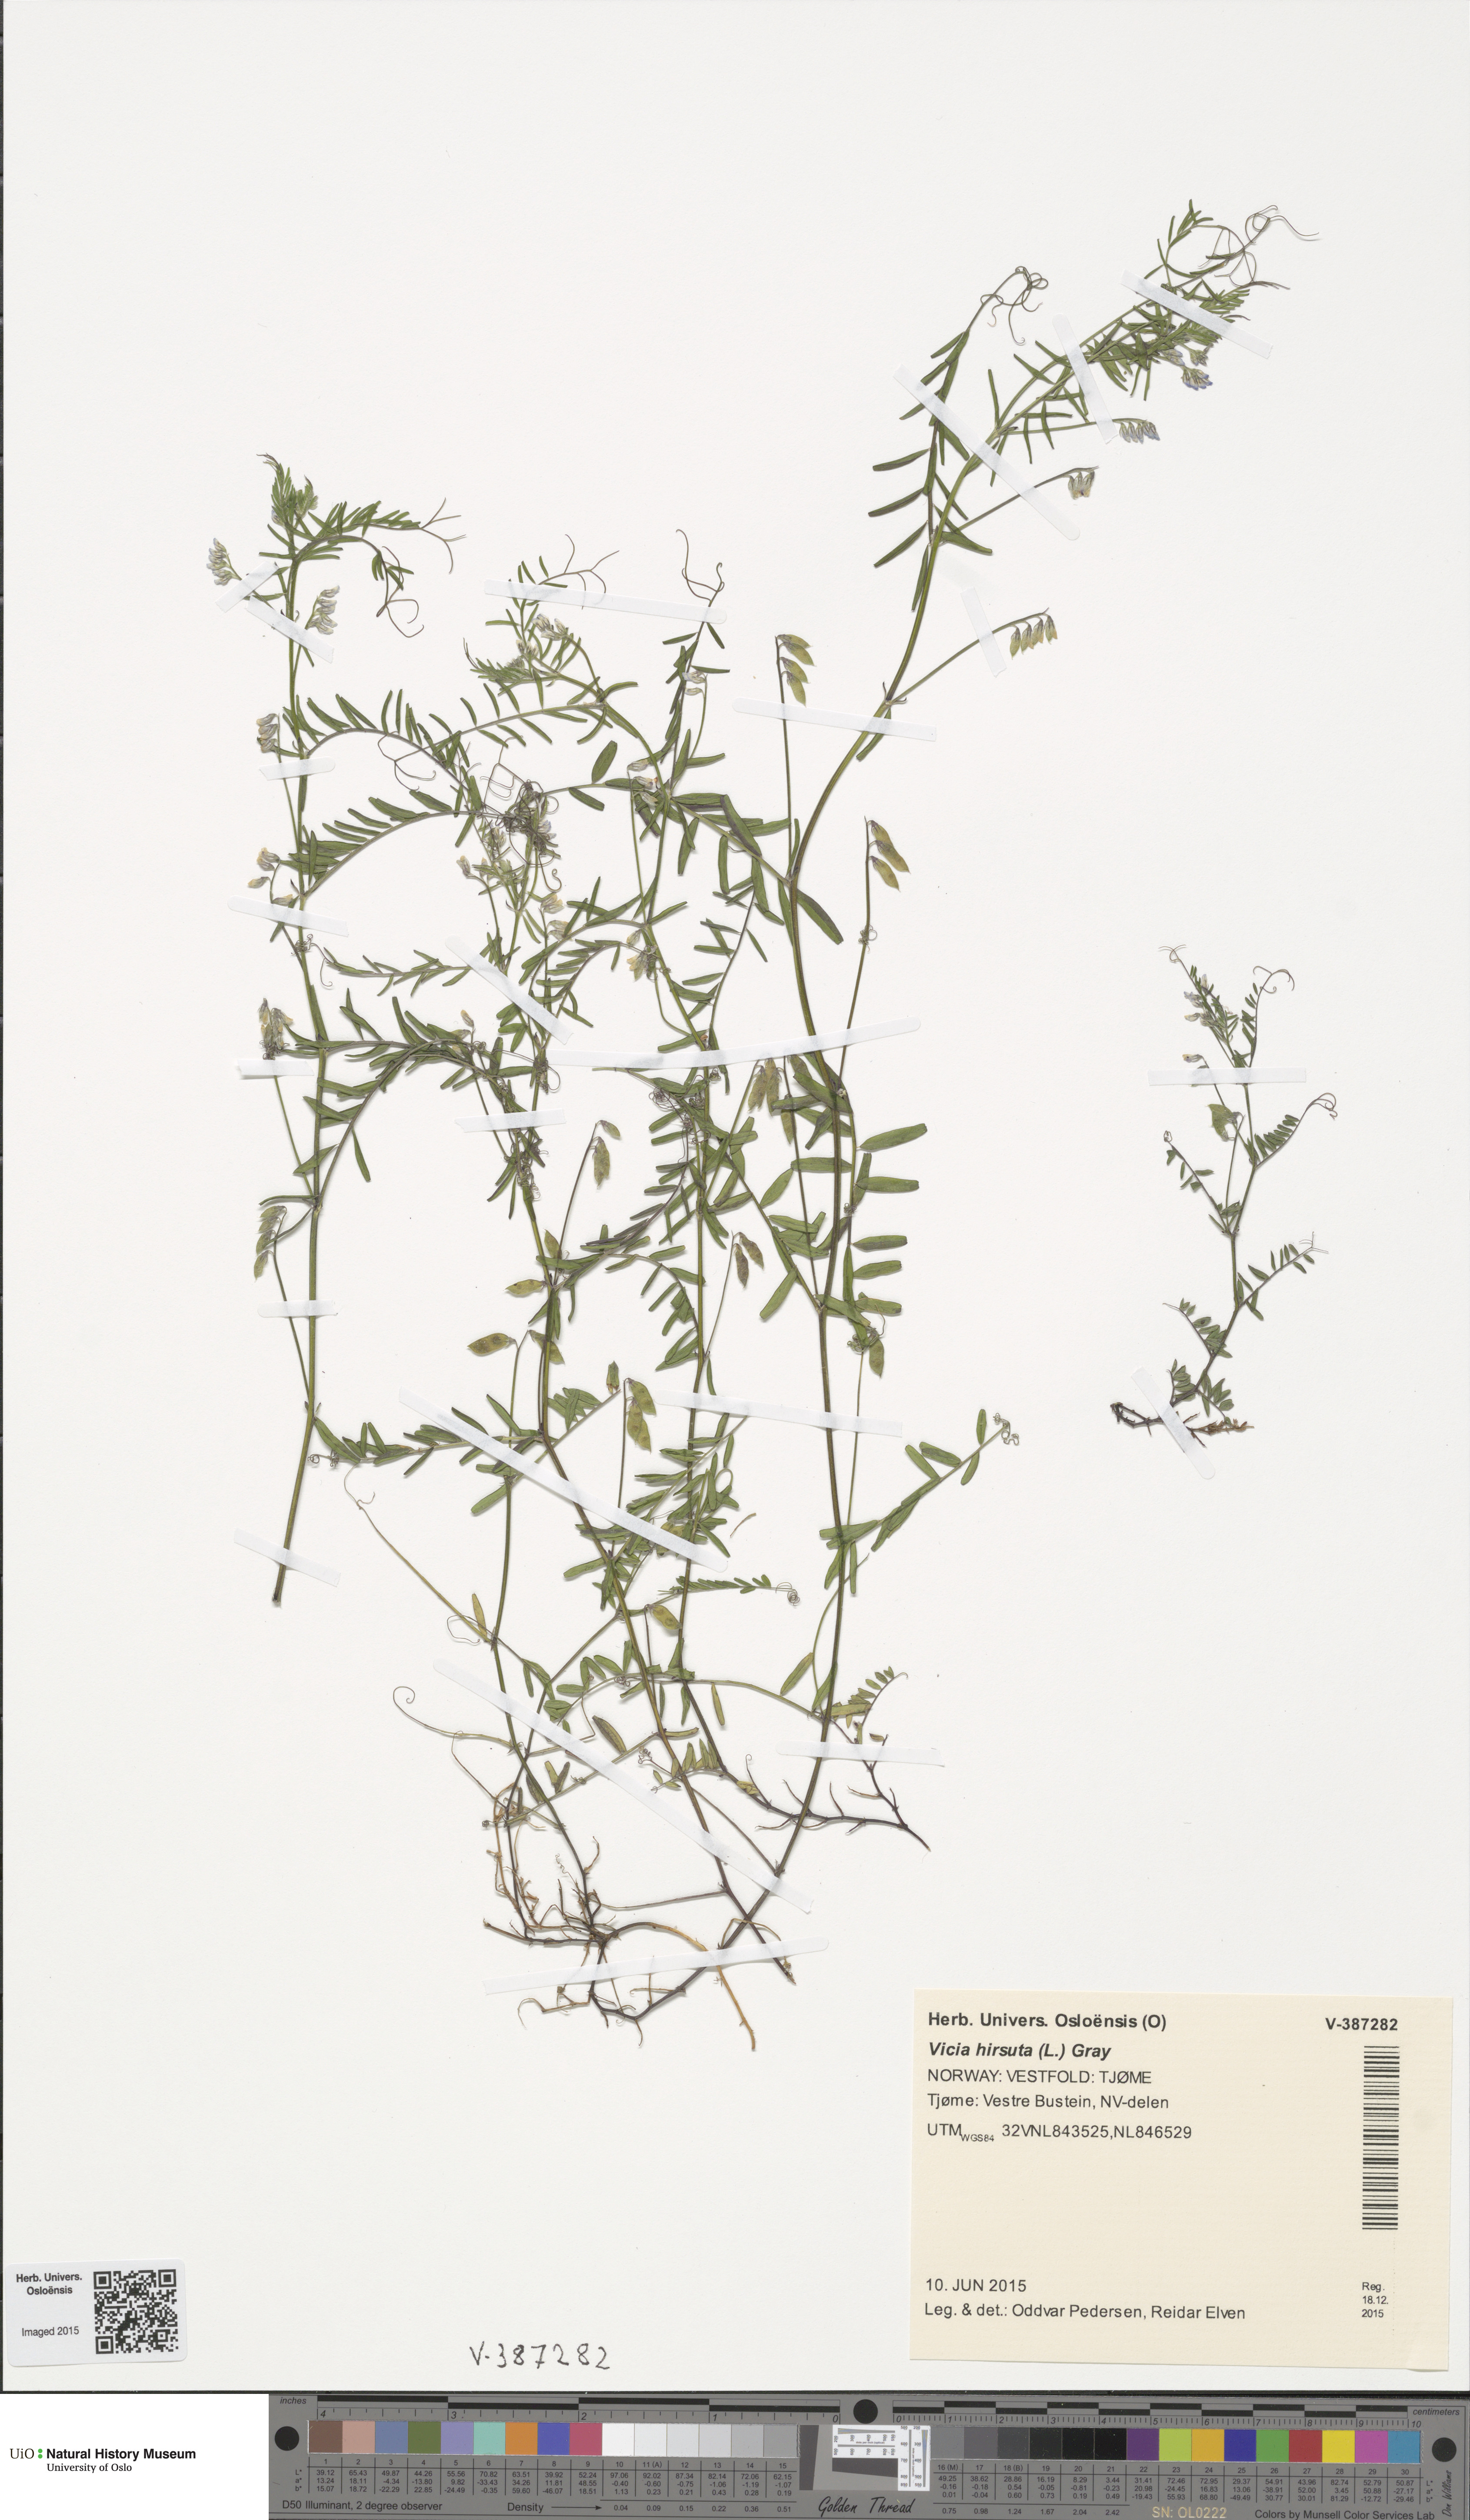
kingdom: Plantae
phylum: Tracheophyta
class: Magnoliopsida
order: Fabales
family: Fabaceae
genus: Vicia
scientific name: Vicia hirsuta
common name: Tiny vetch
